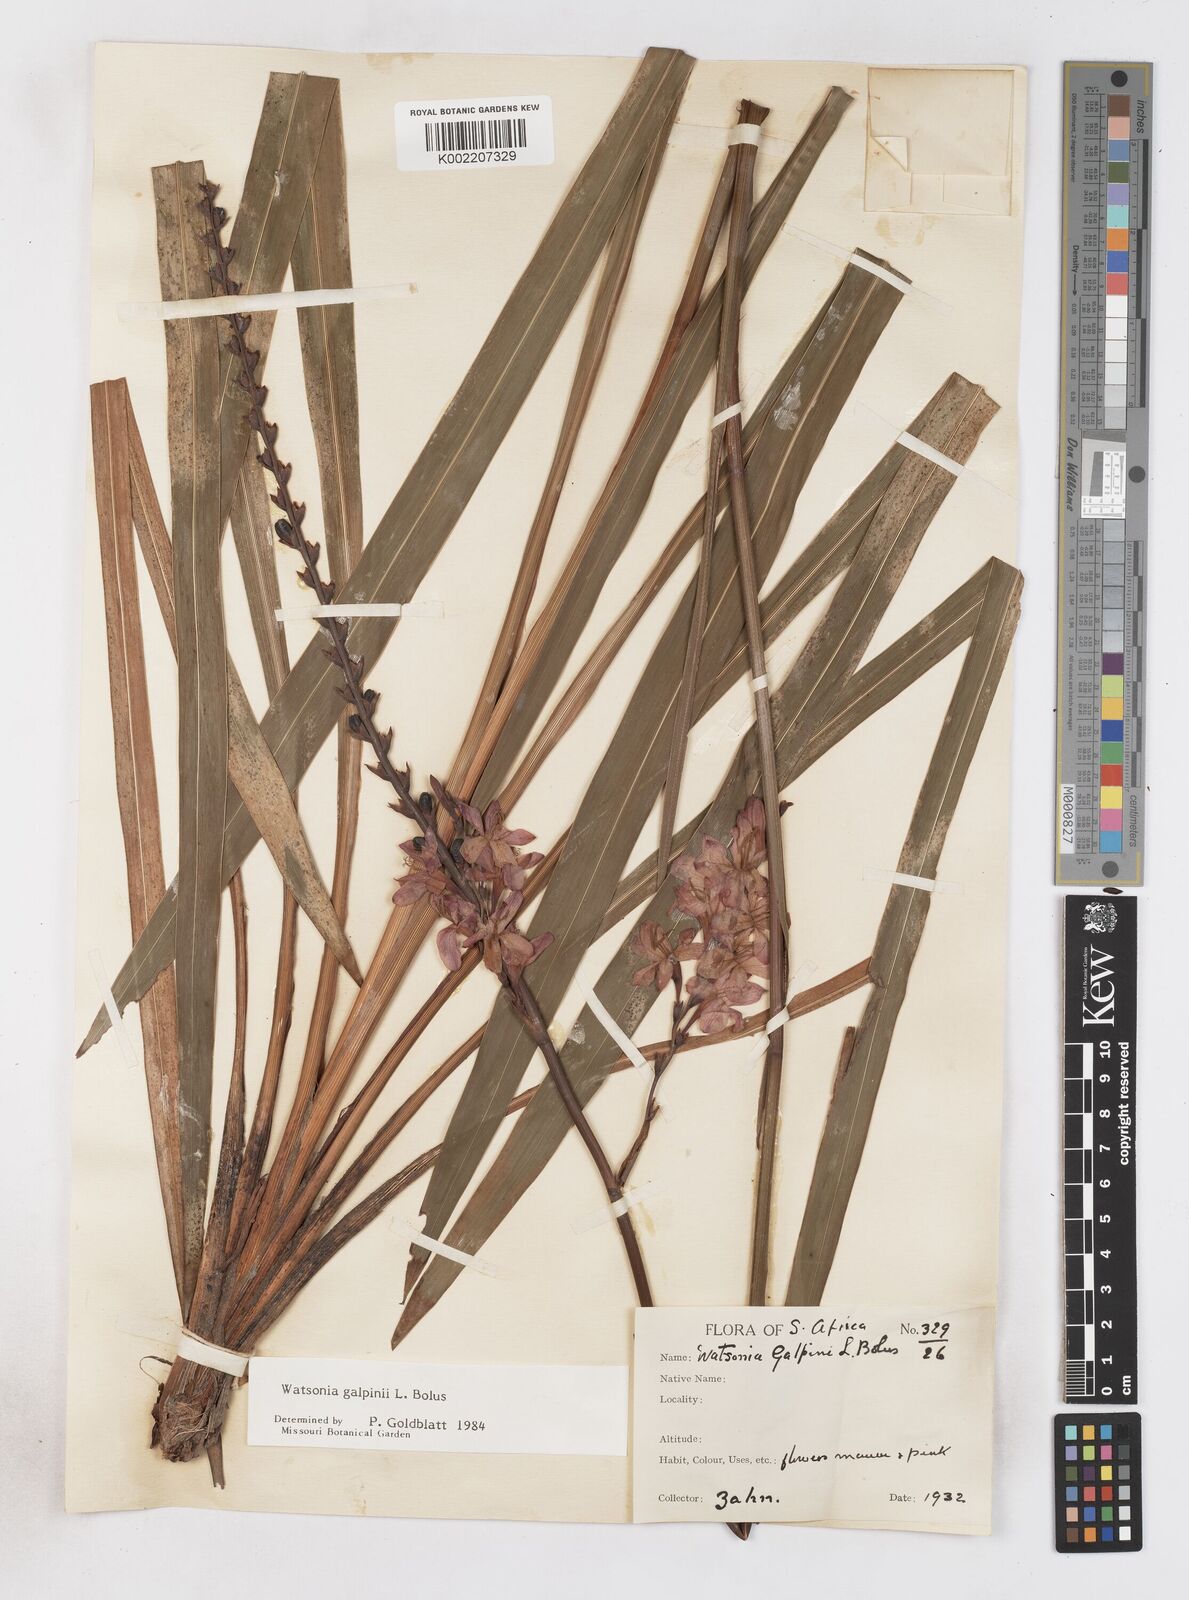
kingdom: Plantae
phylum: Tracheophyta
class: Liliopsida
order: Asparagales
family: Iridaceae
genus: Watsonia
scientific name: Watsonia galpinii
